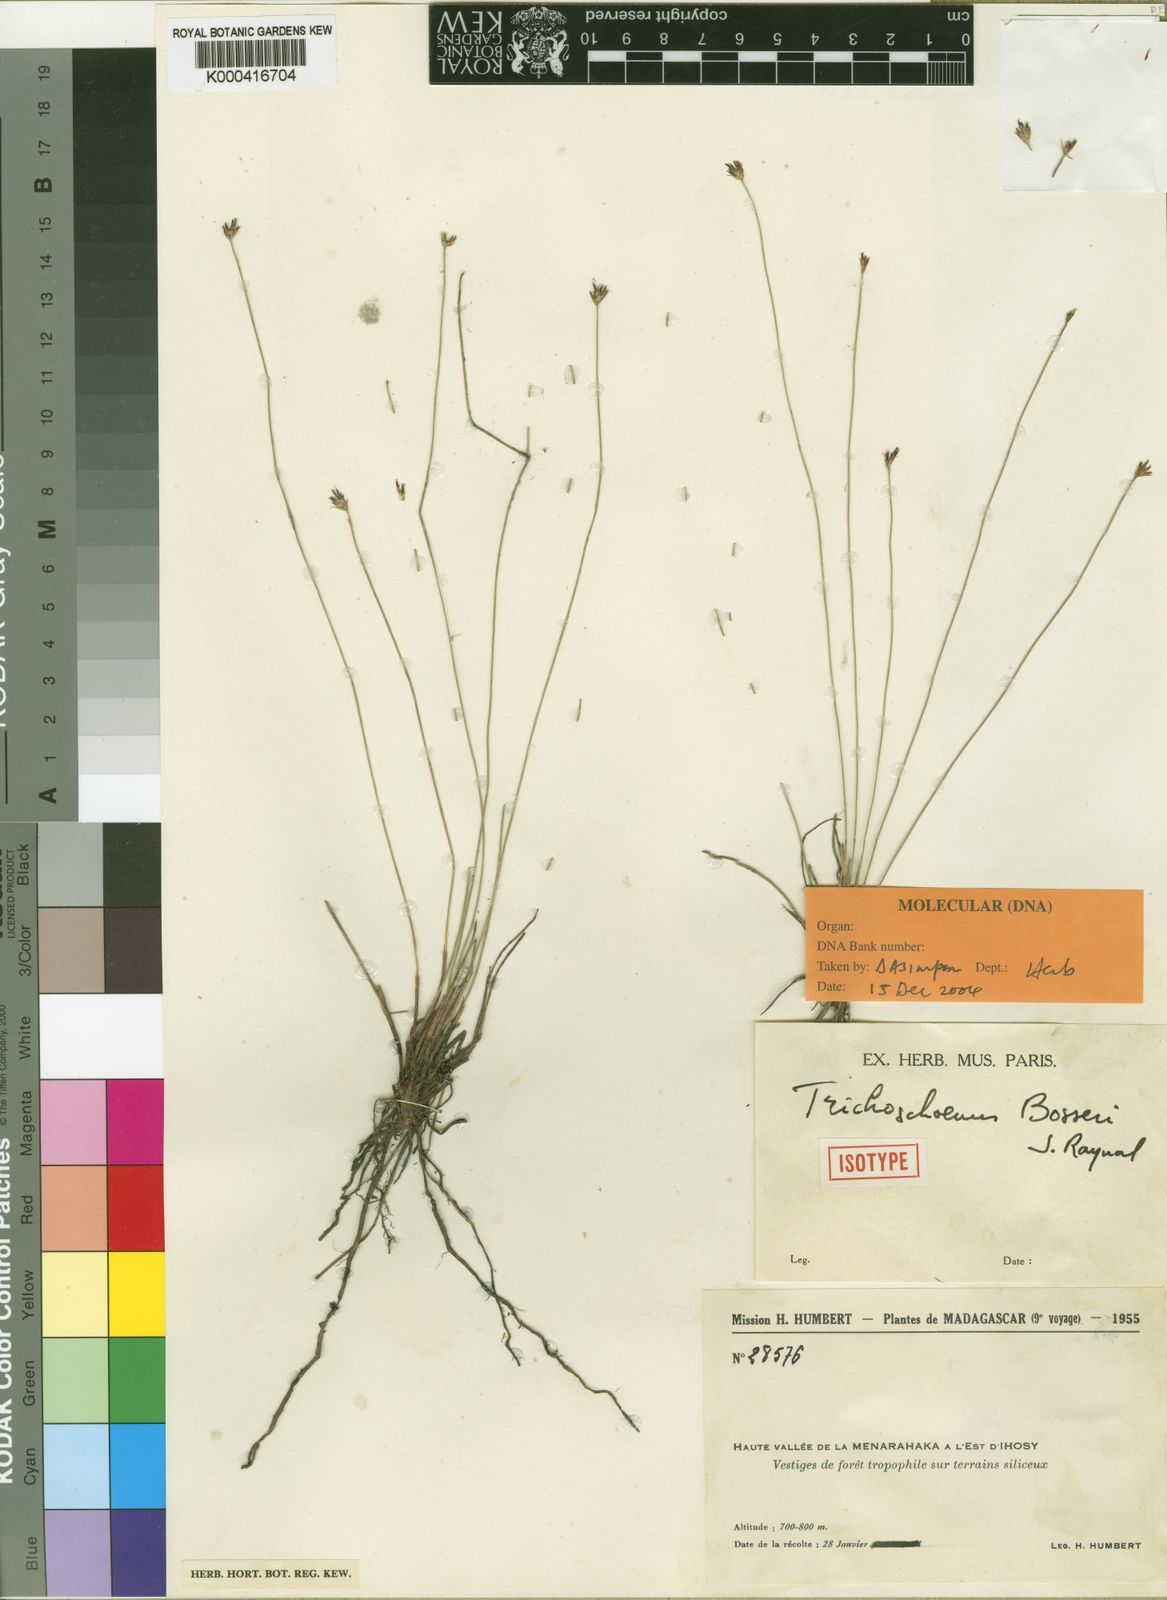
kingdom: Plantae
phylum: Tracheophyta
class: Liliopsida
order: Poales
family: Cyperaceae
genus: Trichoschoenus
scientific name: Trichoschoenus bosseri
